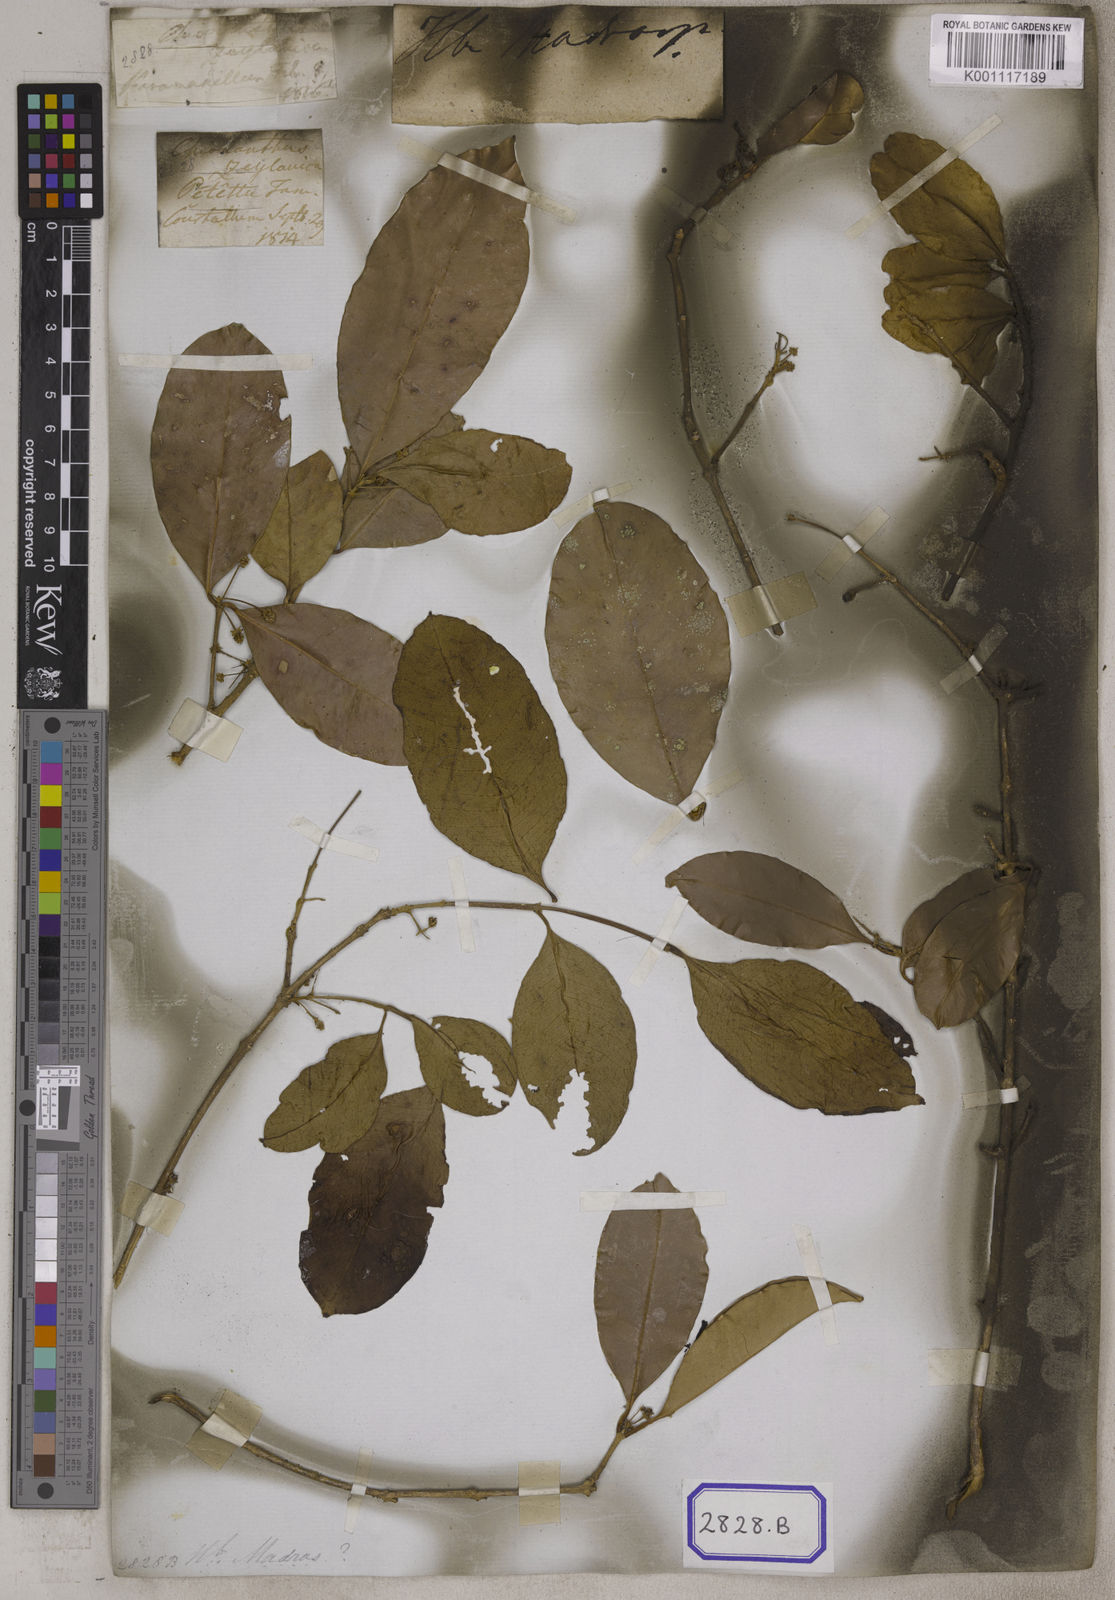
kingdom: Plantae
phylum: Tracheophyta
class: Magnoliopsida
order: Lamiales
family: Oleaceae
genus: Chionanthus
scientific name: Chionanthus
